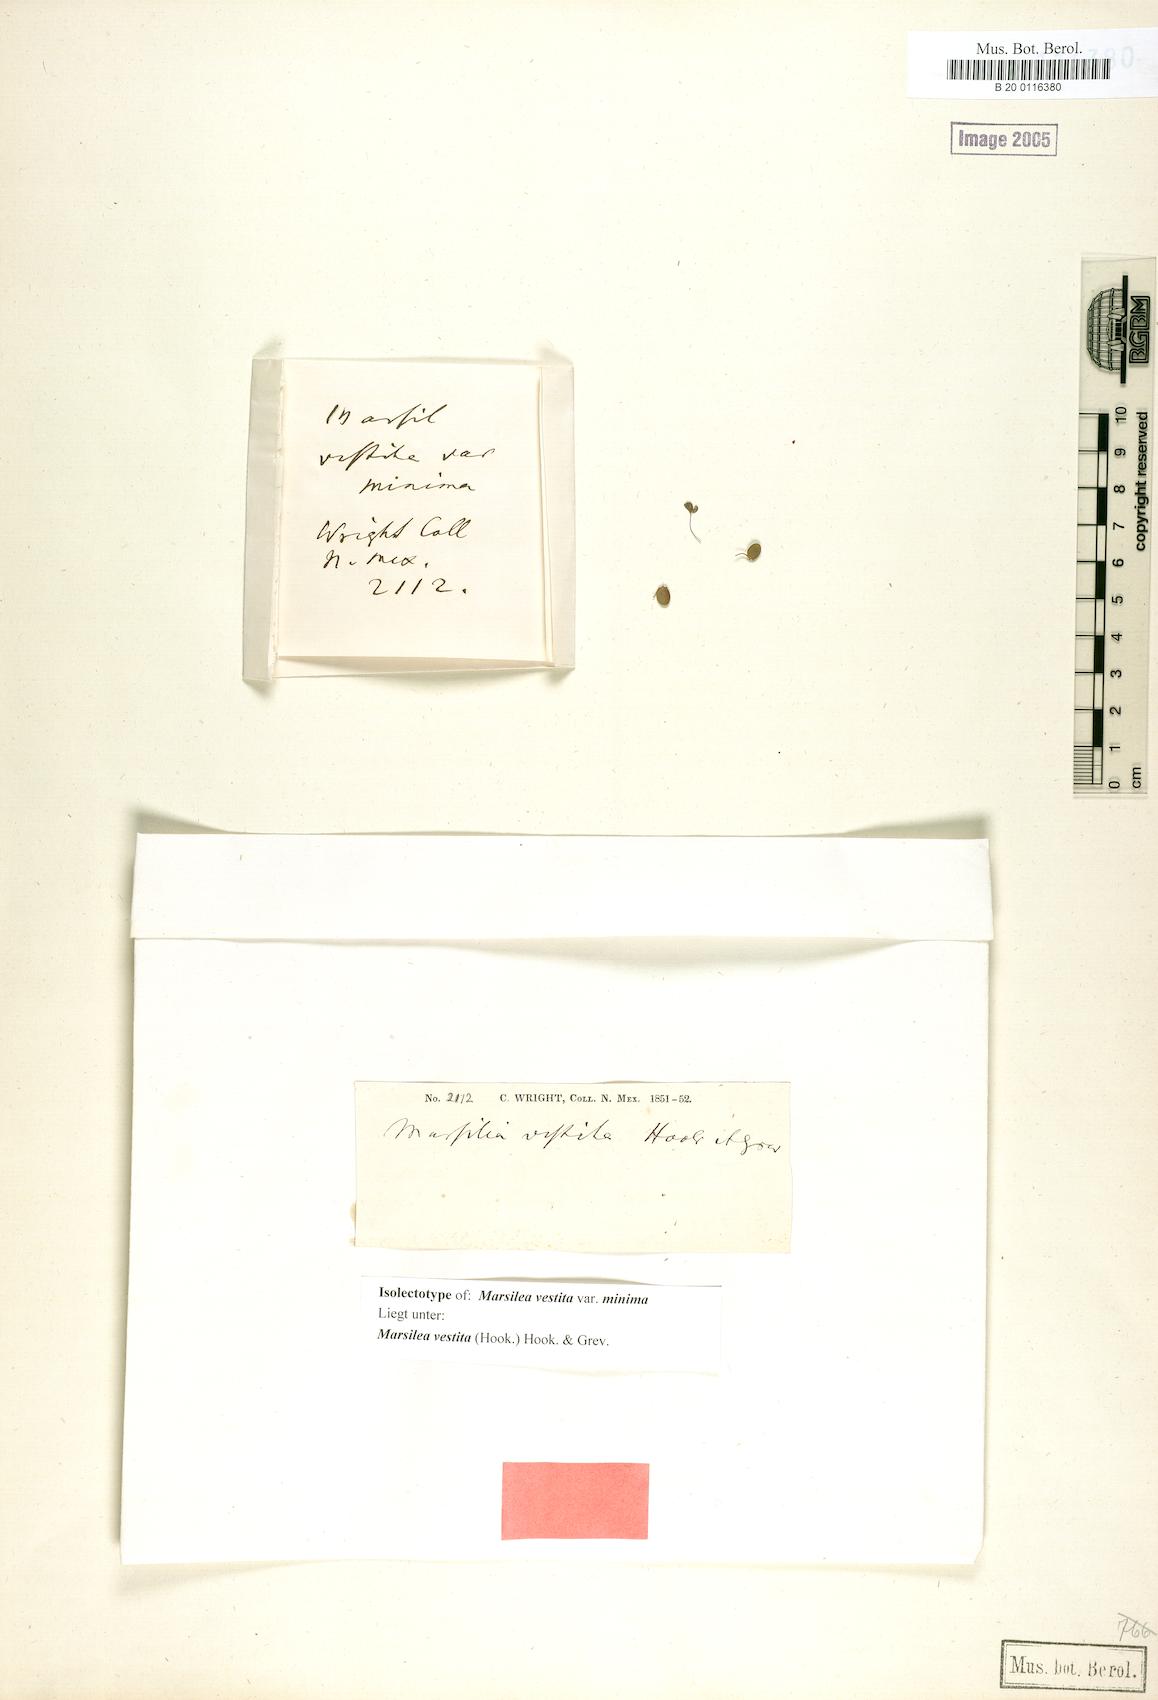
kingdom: Plantae
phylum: Tracheophyta
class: Polypodiopsida
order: Salviniales
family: Marsileaceae
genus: Marsilea
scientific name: Marsilea vestita
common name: Hooked-pepperwort
